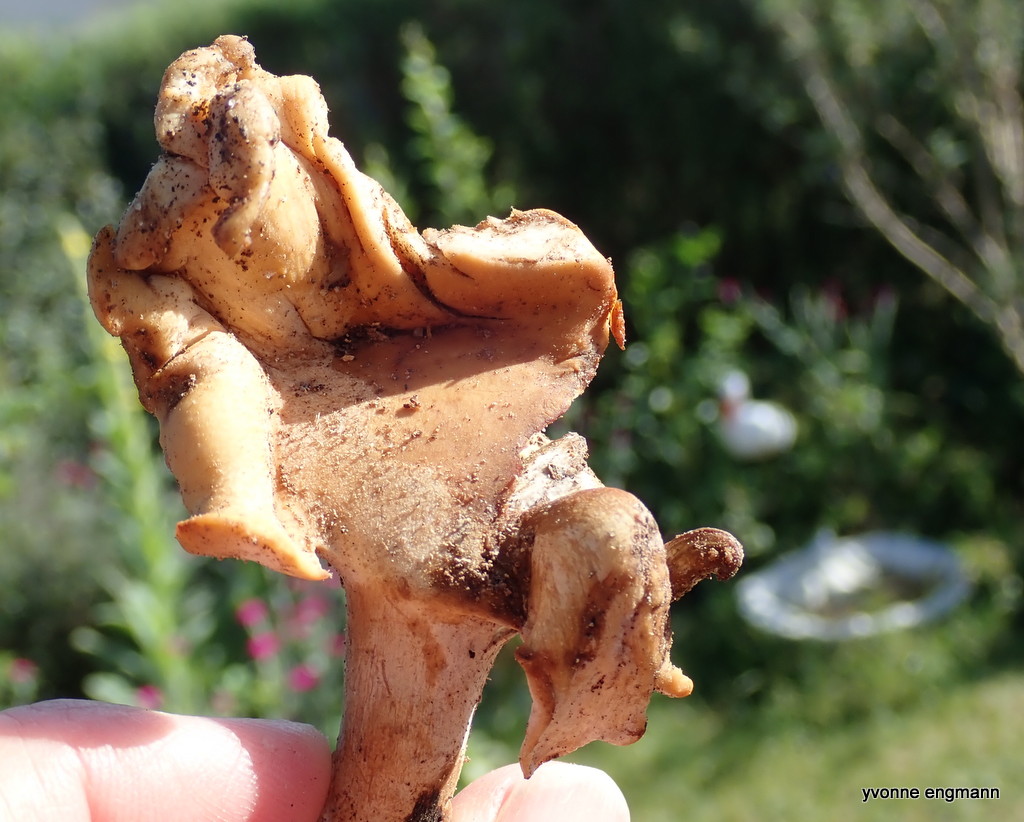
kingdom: Fungi
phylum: Basidiomycota
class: Agaricomycetes
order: Polyporales
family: Polyporaceae
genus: Cerioporus
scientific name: Cerioporus varius
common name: foranderlig stilkporesvamp
